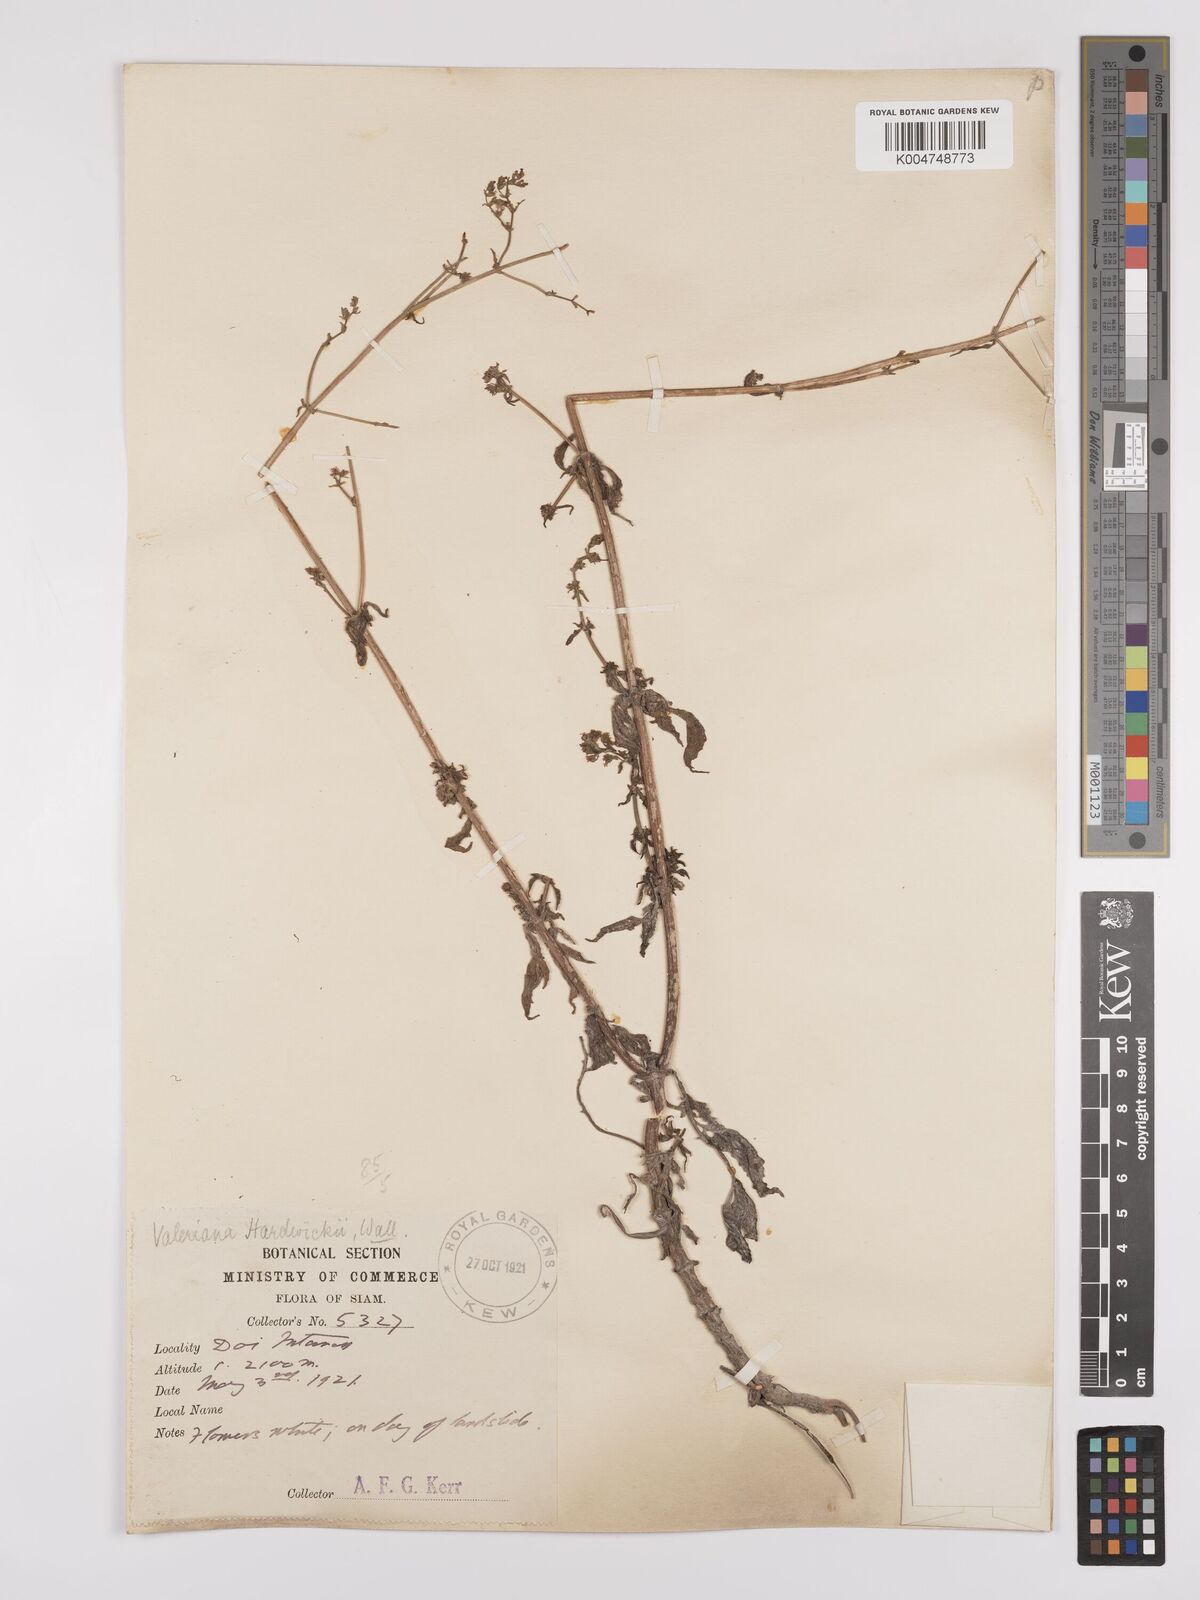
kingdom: Plantae
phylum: Tracheophyta
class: Magnoliopsida
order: Dipsacales
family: Caprifoliaceae
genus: Valeriana
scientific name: Valeriana hardwickei
